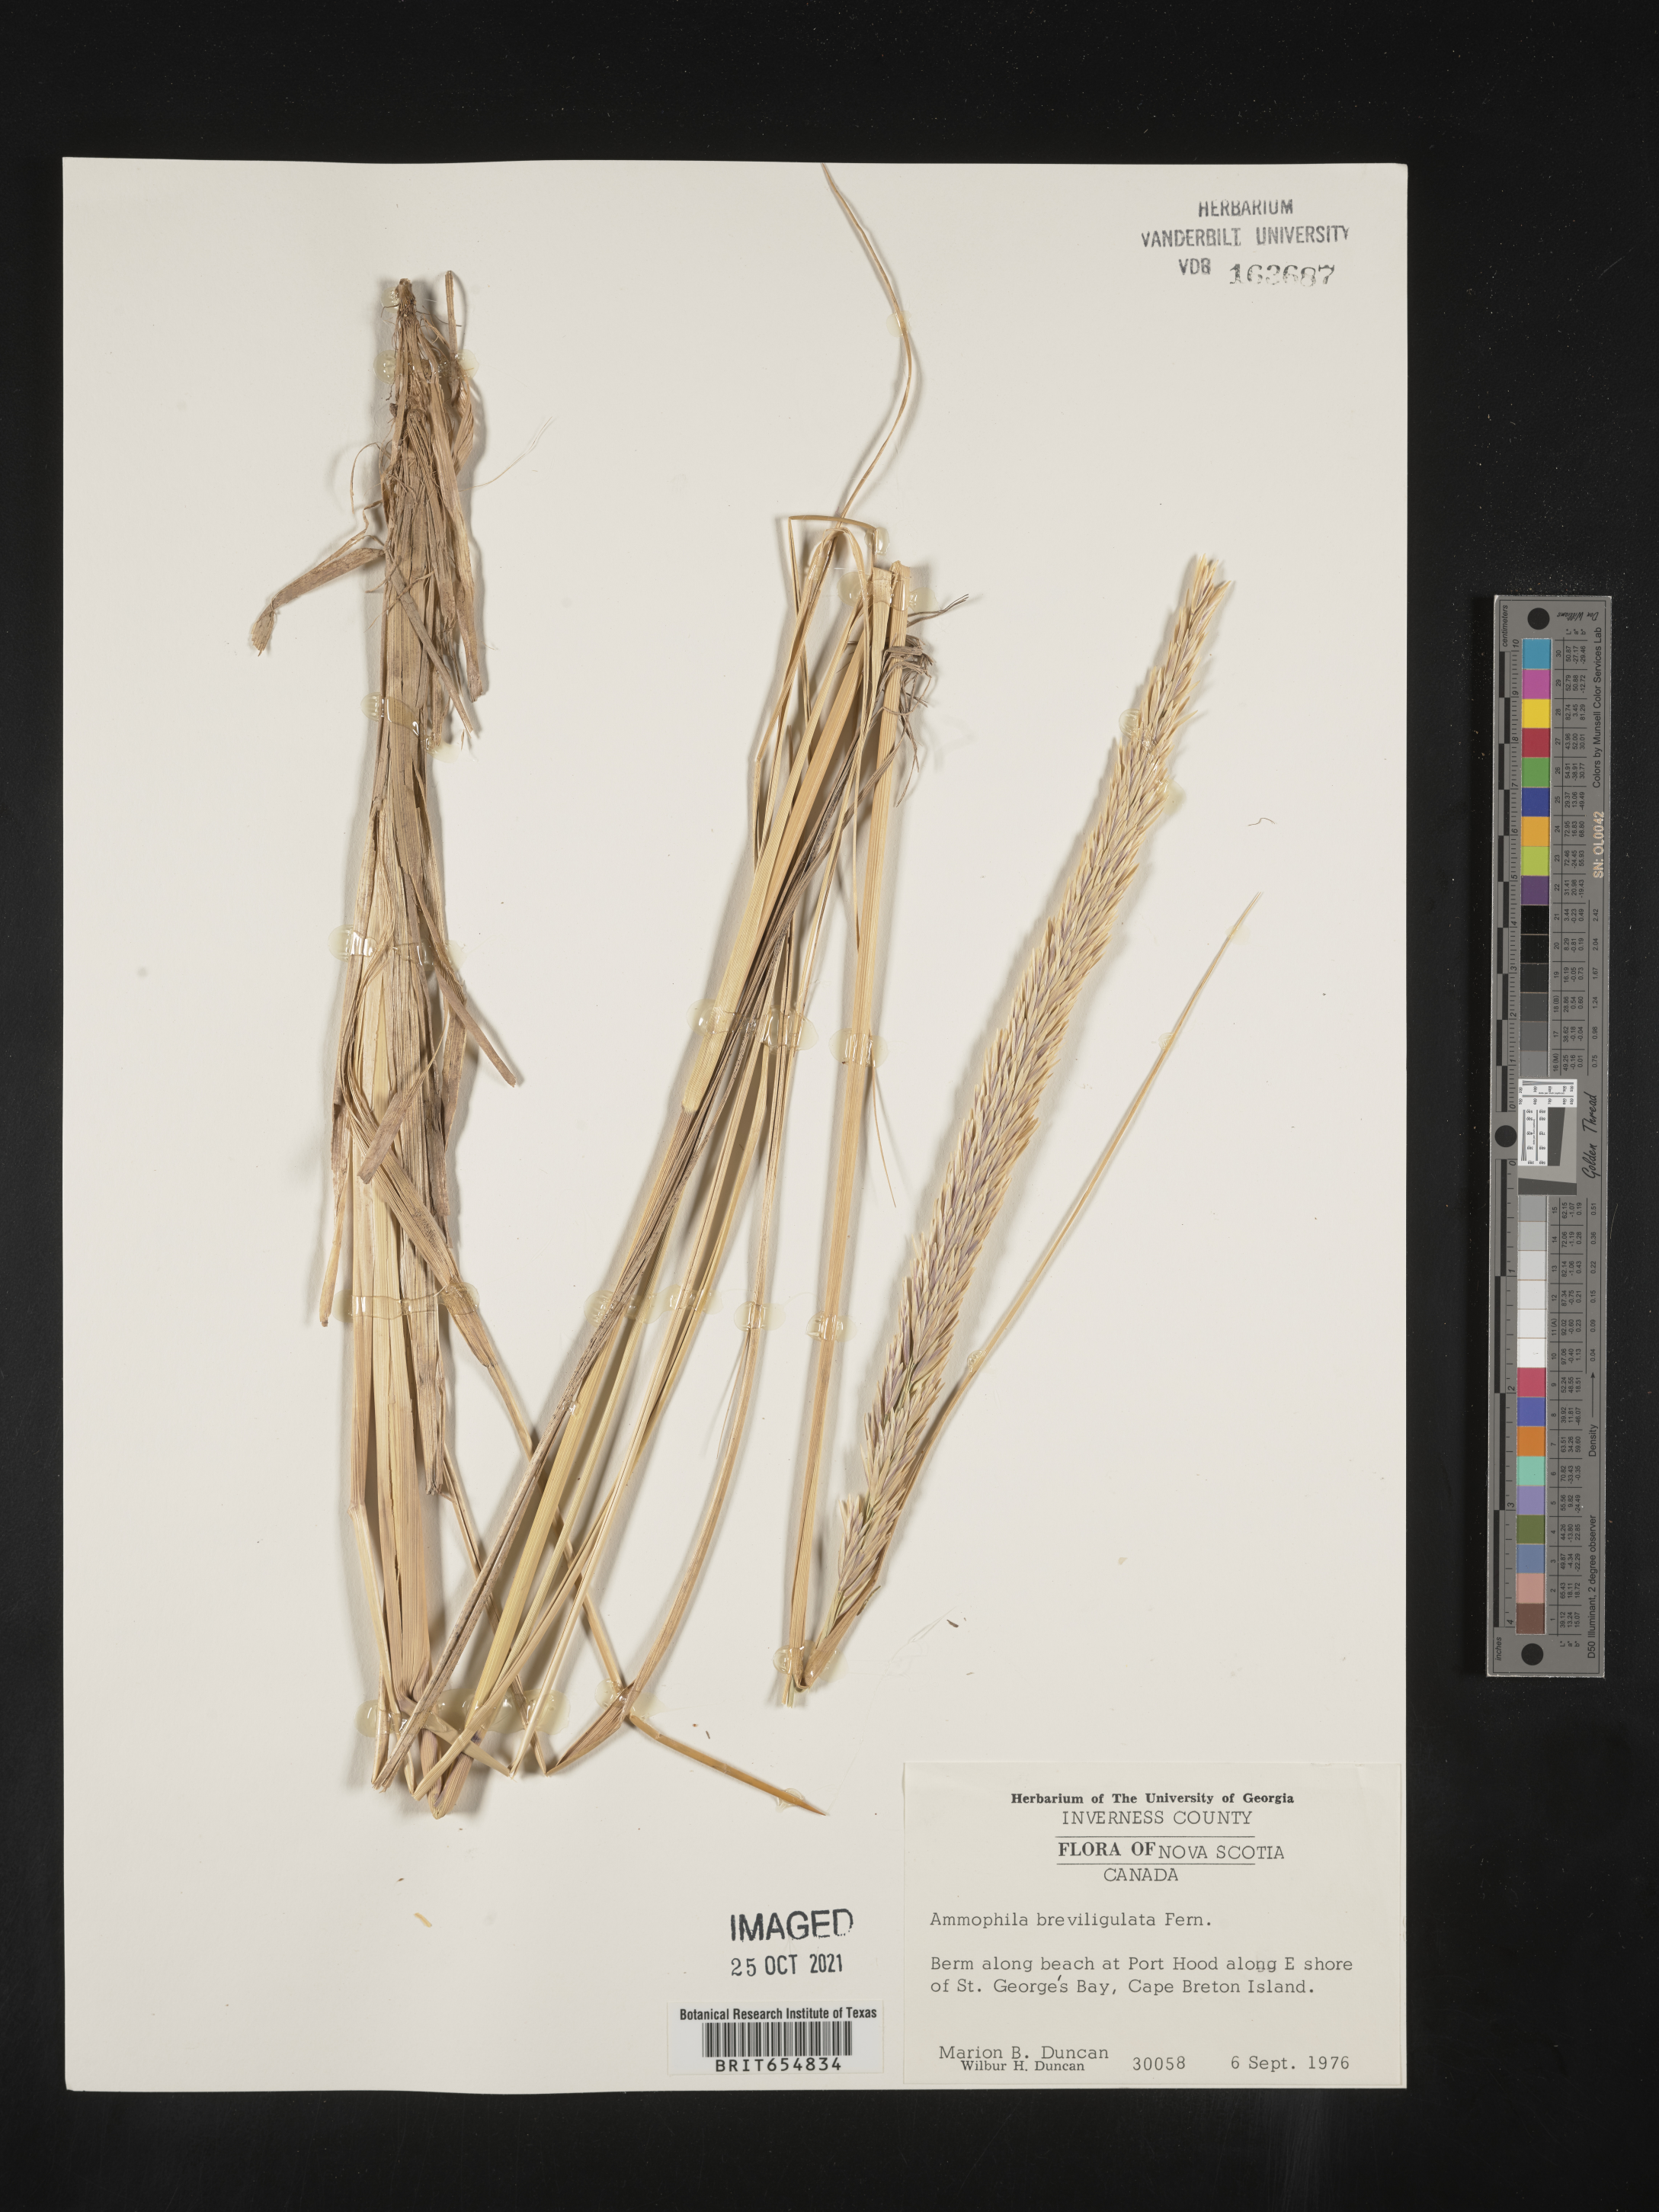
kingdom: Animalia
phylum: Arthropoda
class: Insecta
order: Hymenoptera
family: Sphecidae
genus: Ammophila
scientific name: Ammophila
